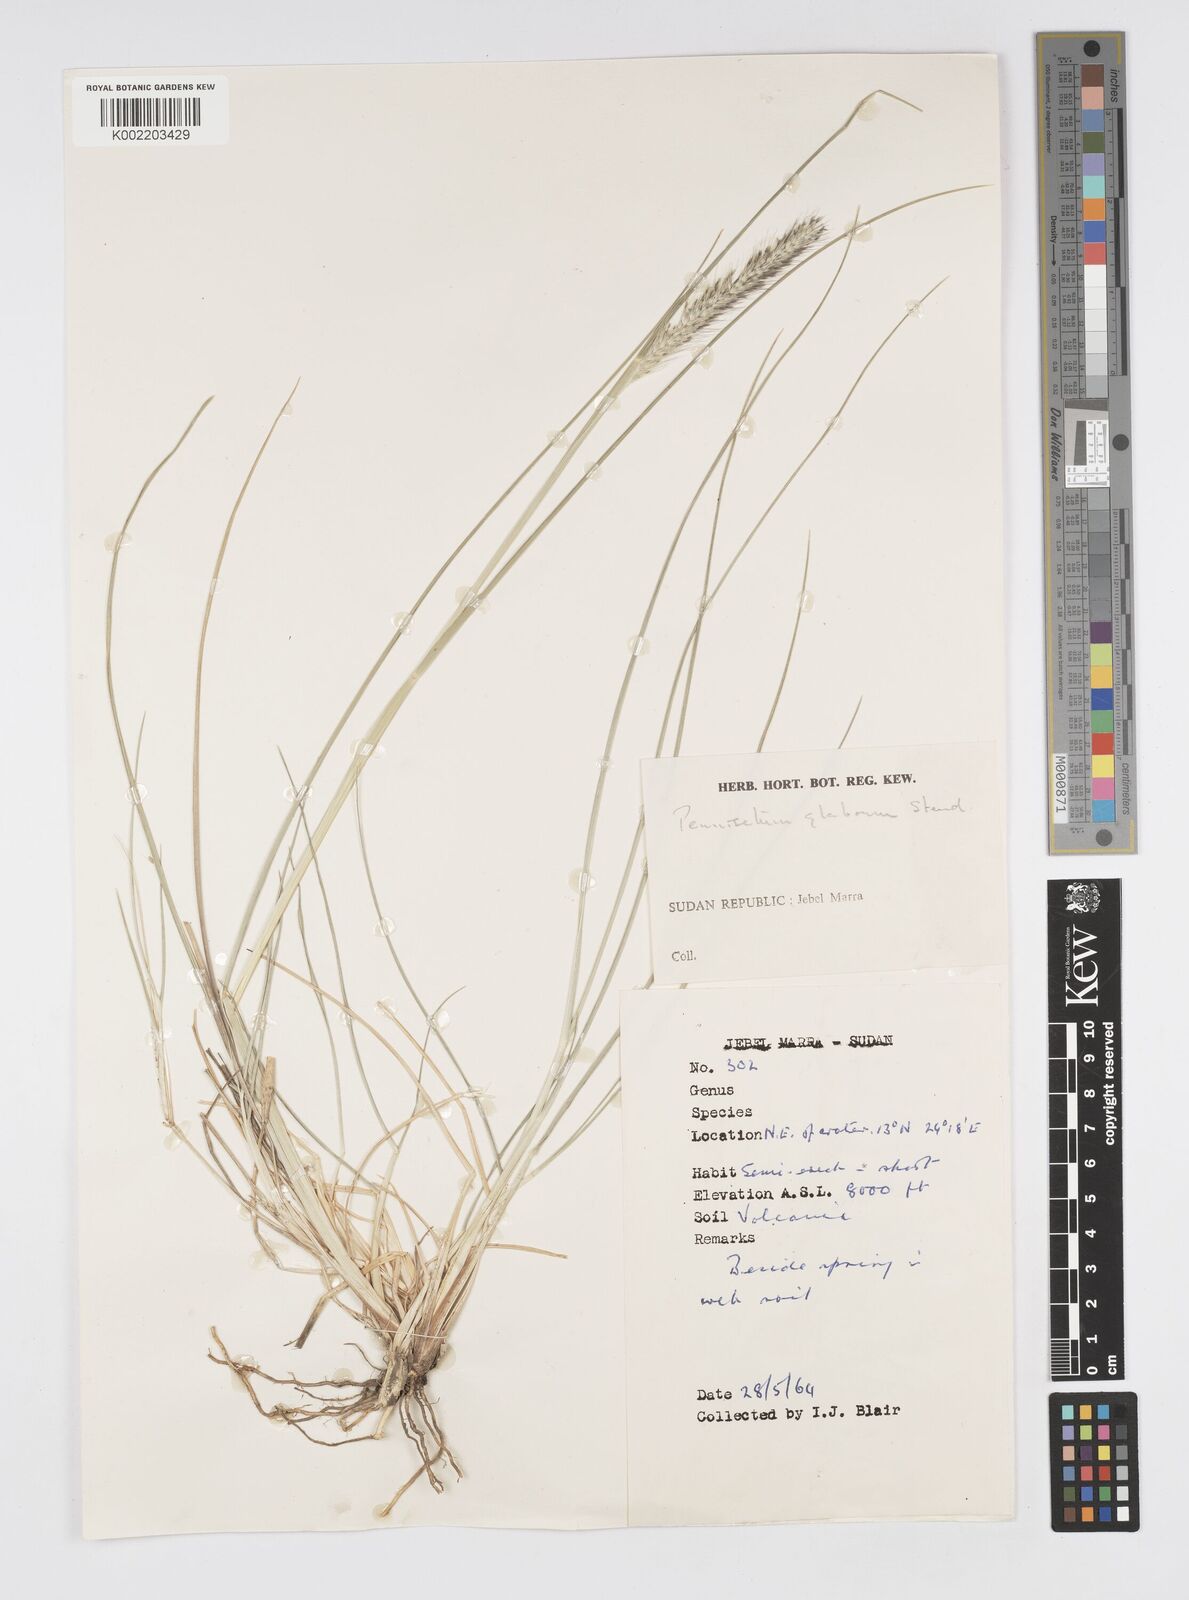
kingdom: Plantae
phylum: Tracheophyta
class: Liliopsida
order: Poales
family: Poaceae
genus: Cenchrus
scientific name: Cenchrus geniculatus
